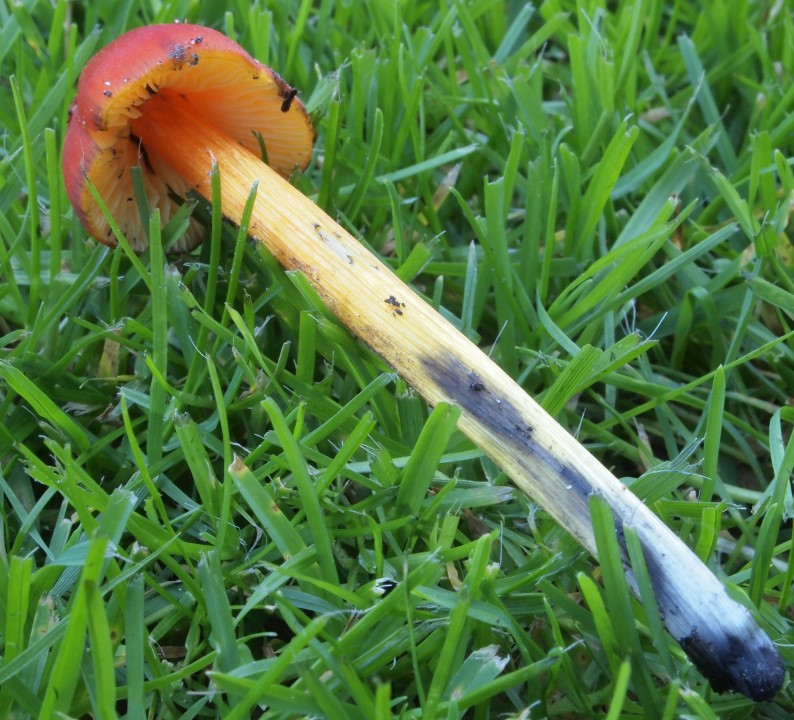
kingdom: Fungi
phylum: Basidiomycota
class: Agaricomycetes
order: Agaricales
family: Hygrophoraceae
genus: Hygrocybe
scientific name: Hygrocybe conica
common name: kegle-vokshat
